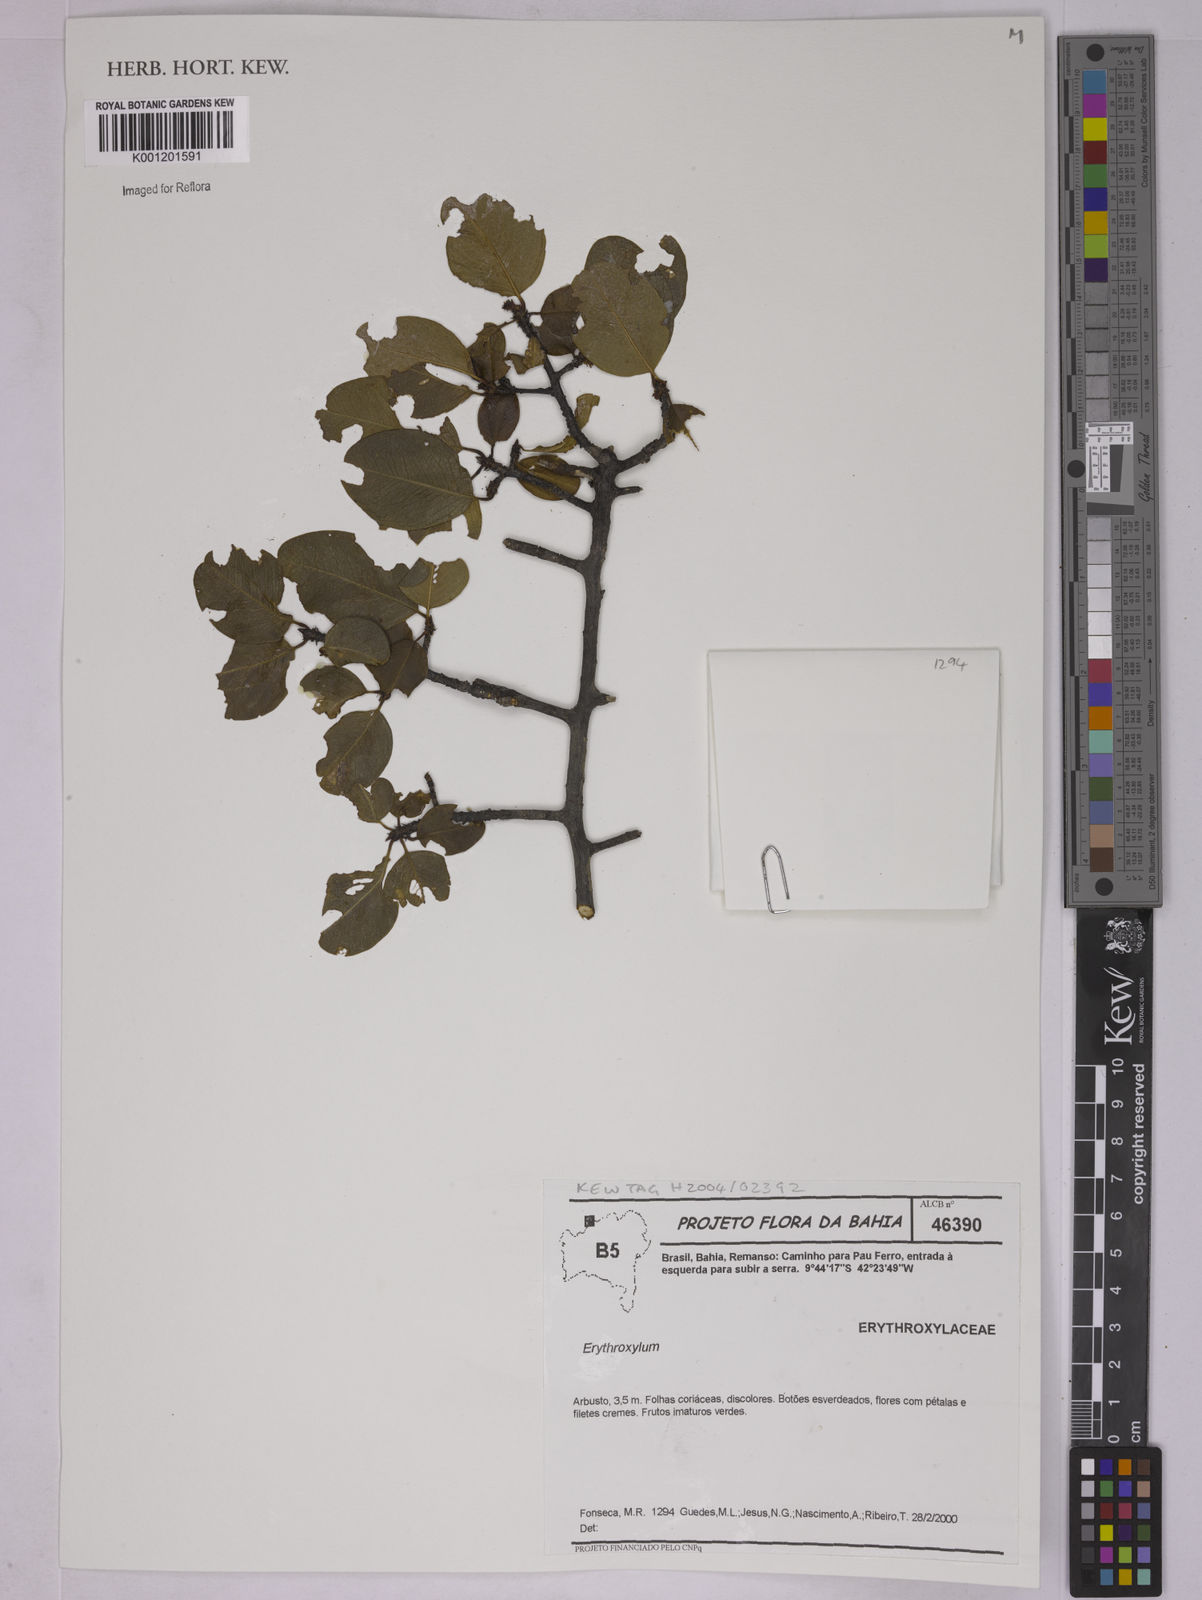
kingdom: Plantae
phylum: Tracheophyta
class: Magnoliopsida
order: Malpighiales
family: Erythroxylaceae
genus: Erythroxylum
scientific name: Erythroxylum
